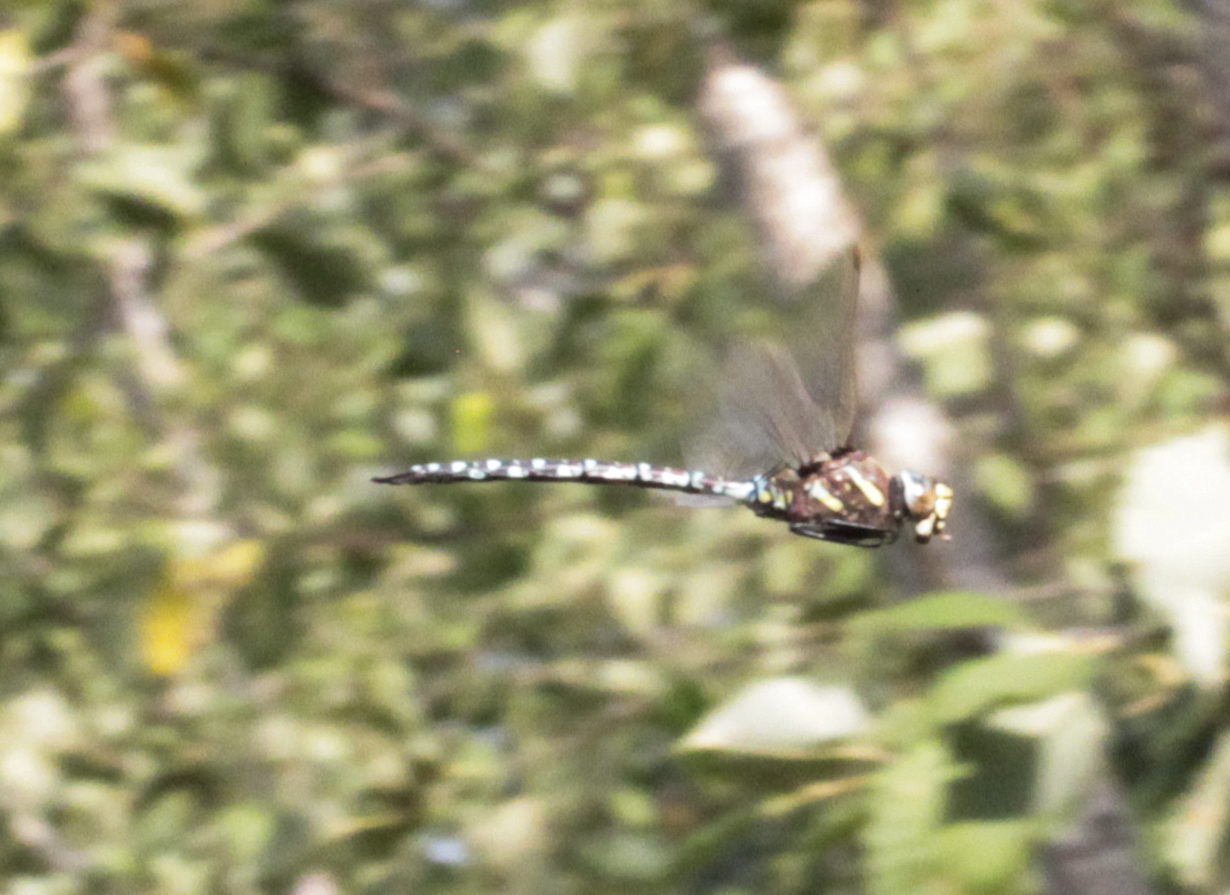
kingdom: Animalia
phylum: Arthropoda
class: Insecta
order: Odonata
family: Aeshnidae
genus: Aeshna
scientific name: Aeshna juncea
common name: Moorland hawker
